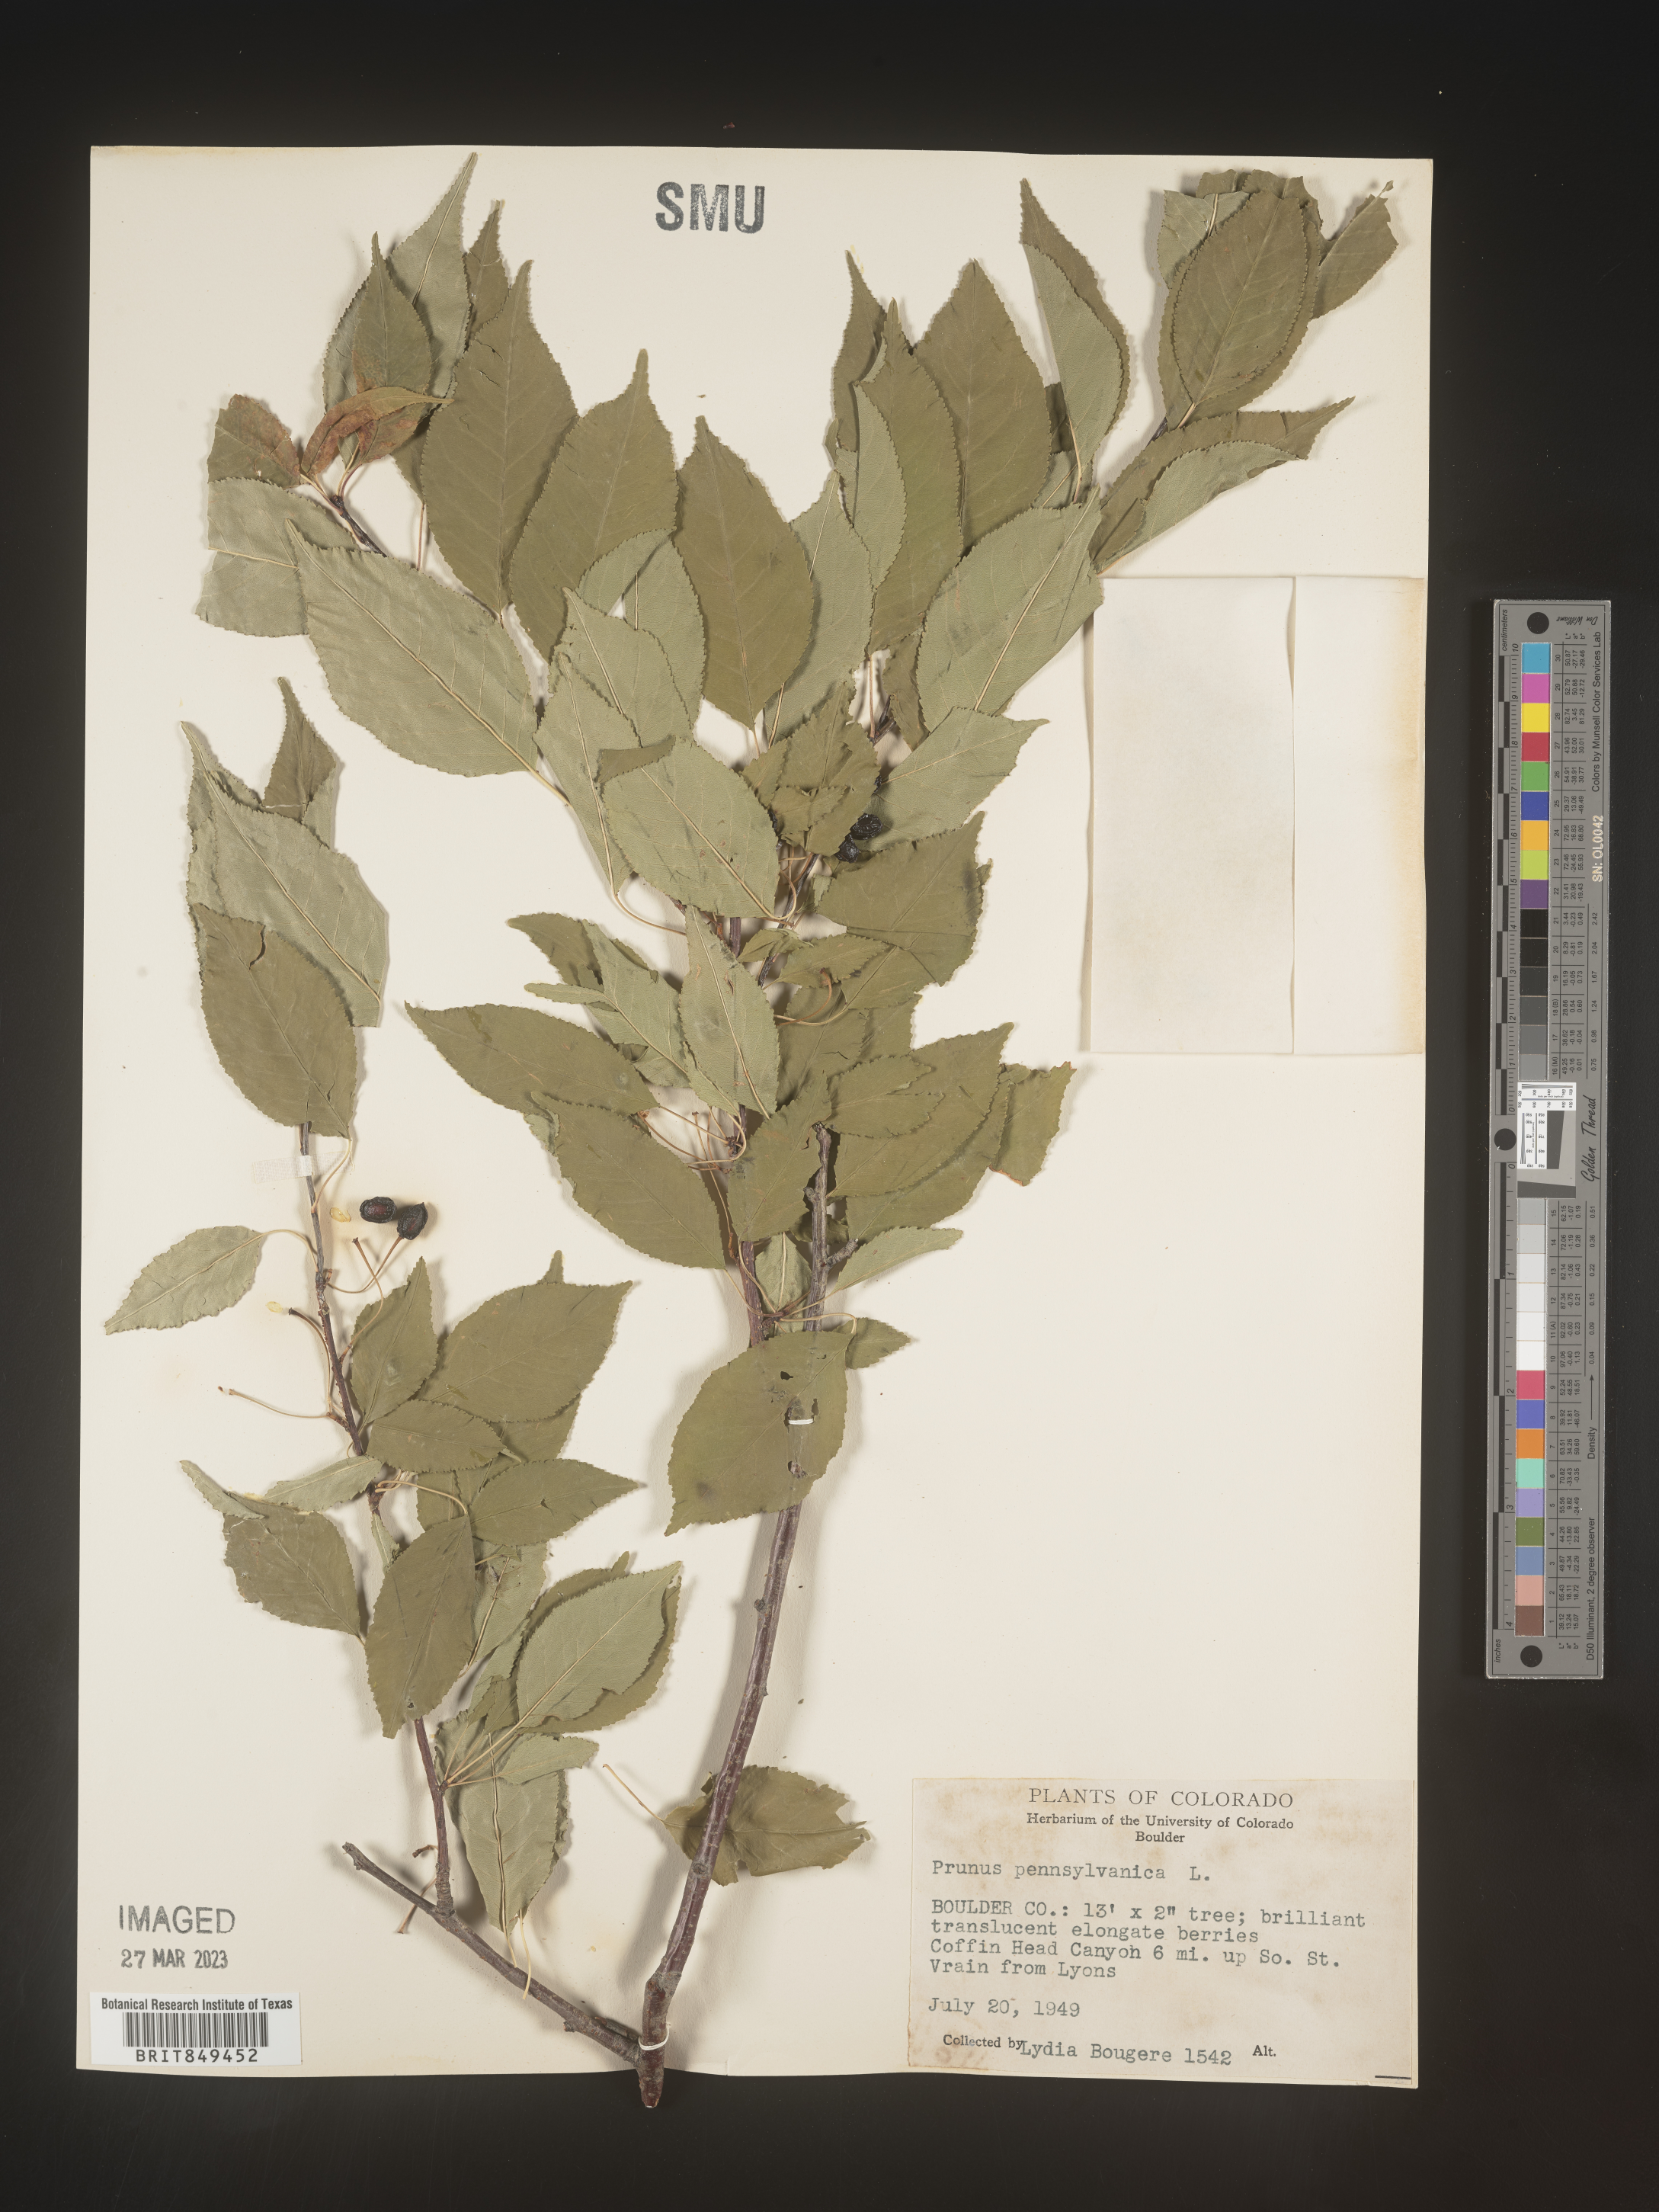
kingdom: Plantae
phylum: Tracheophyta
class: Magnoliopsida
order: Rosales
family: Rosaceae
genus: Prunus
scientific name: Prunus pensylvanica
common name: Pin cherry
